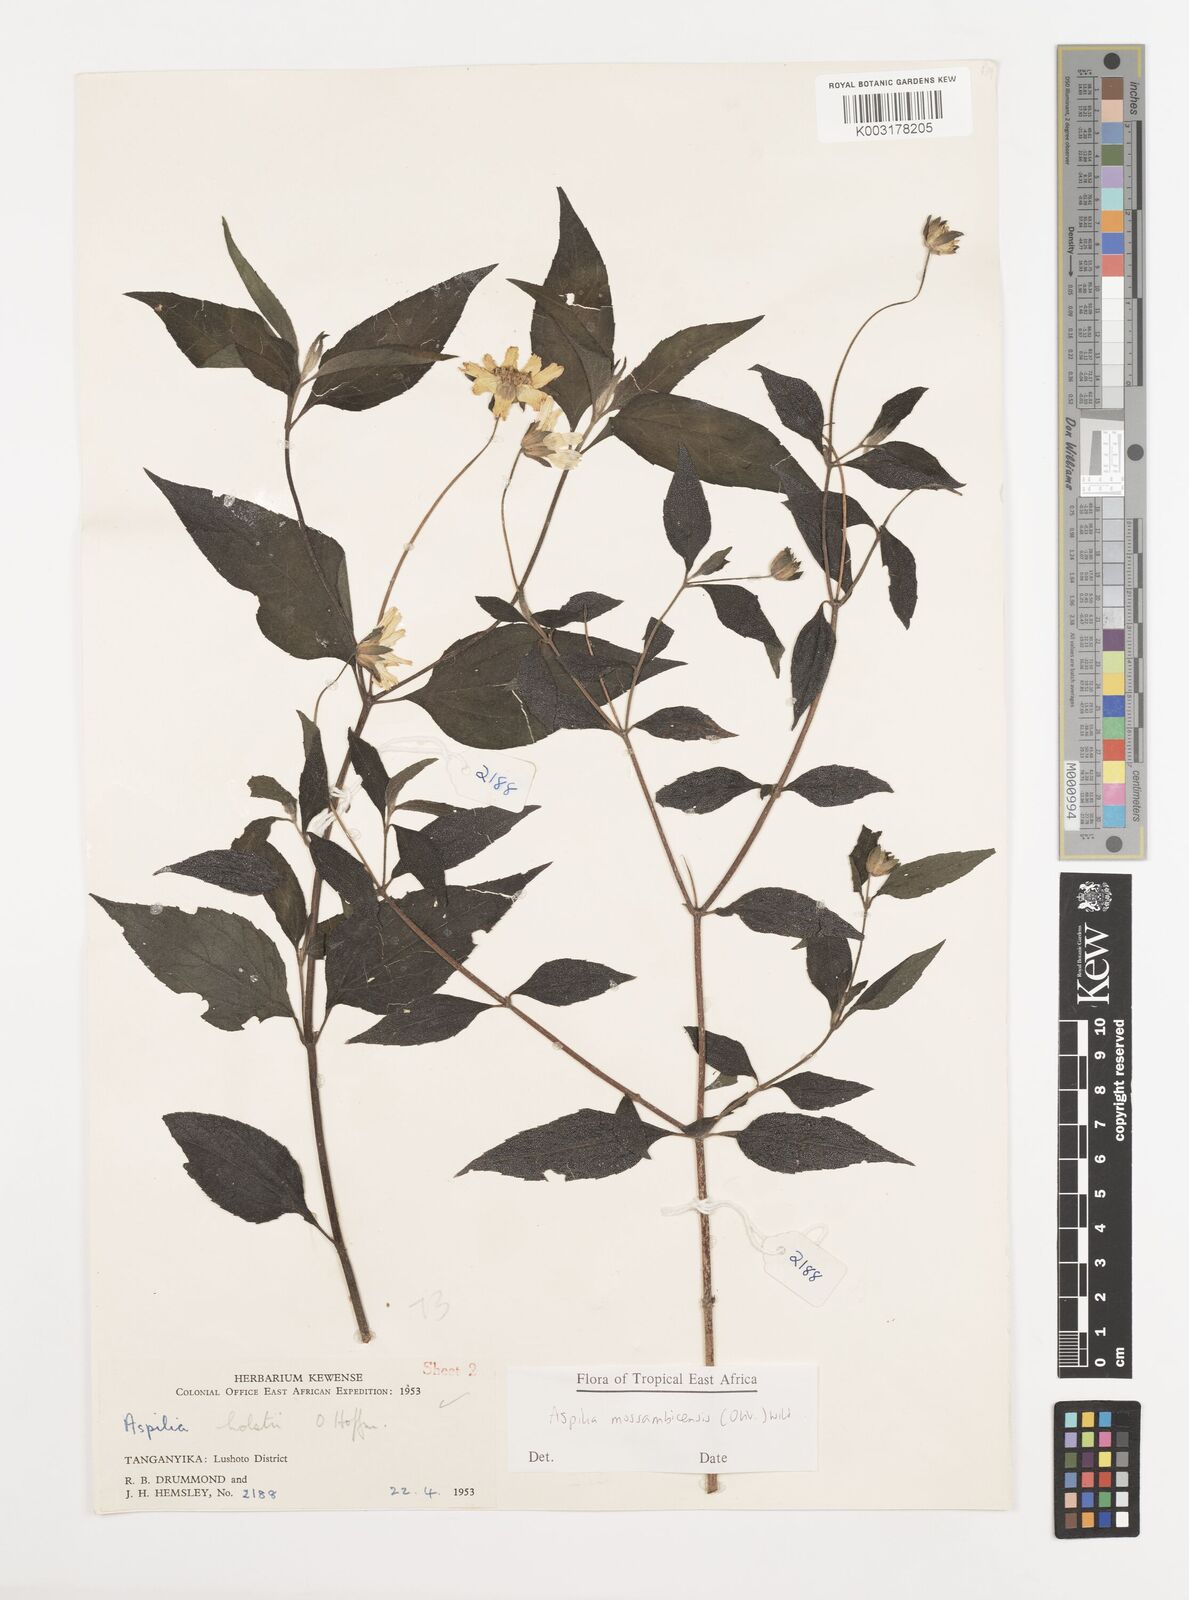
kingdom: Plantae
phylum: Tracheophyta
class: Magnoliopsida
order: Asterales
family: Asteraceae
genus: Aspilia
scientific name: Aspilia mossambicensis
